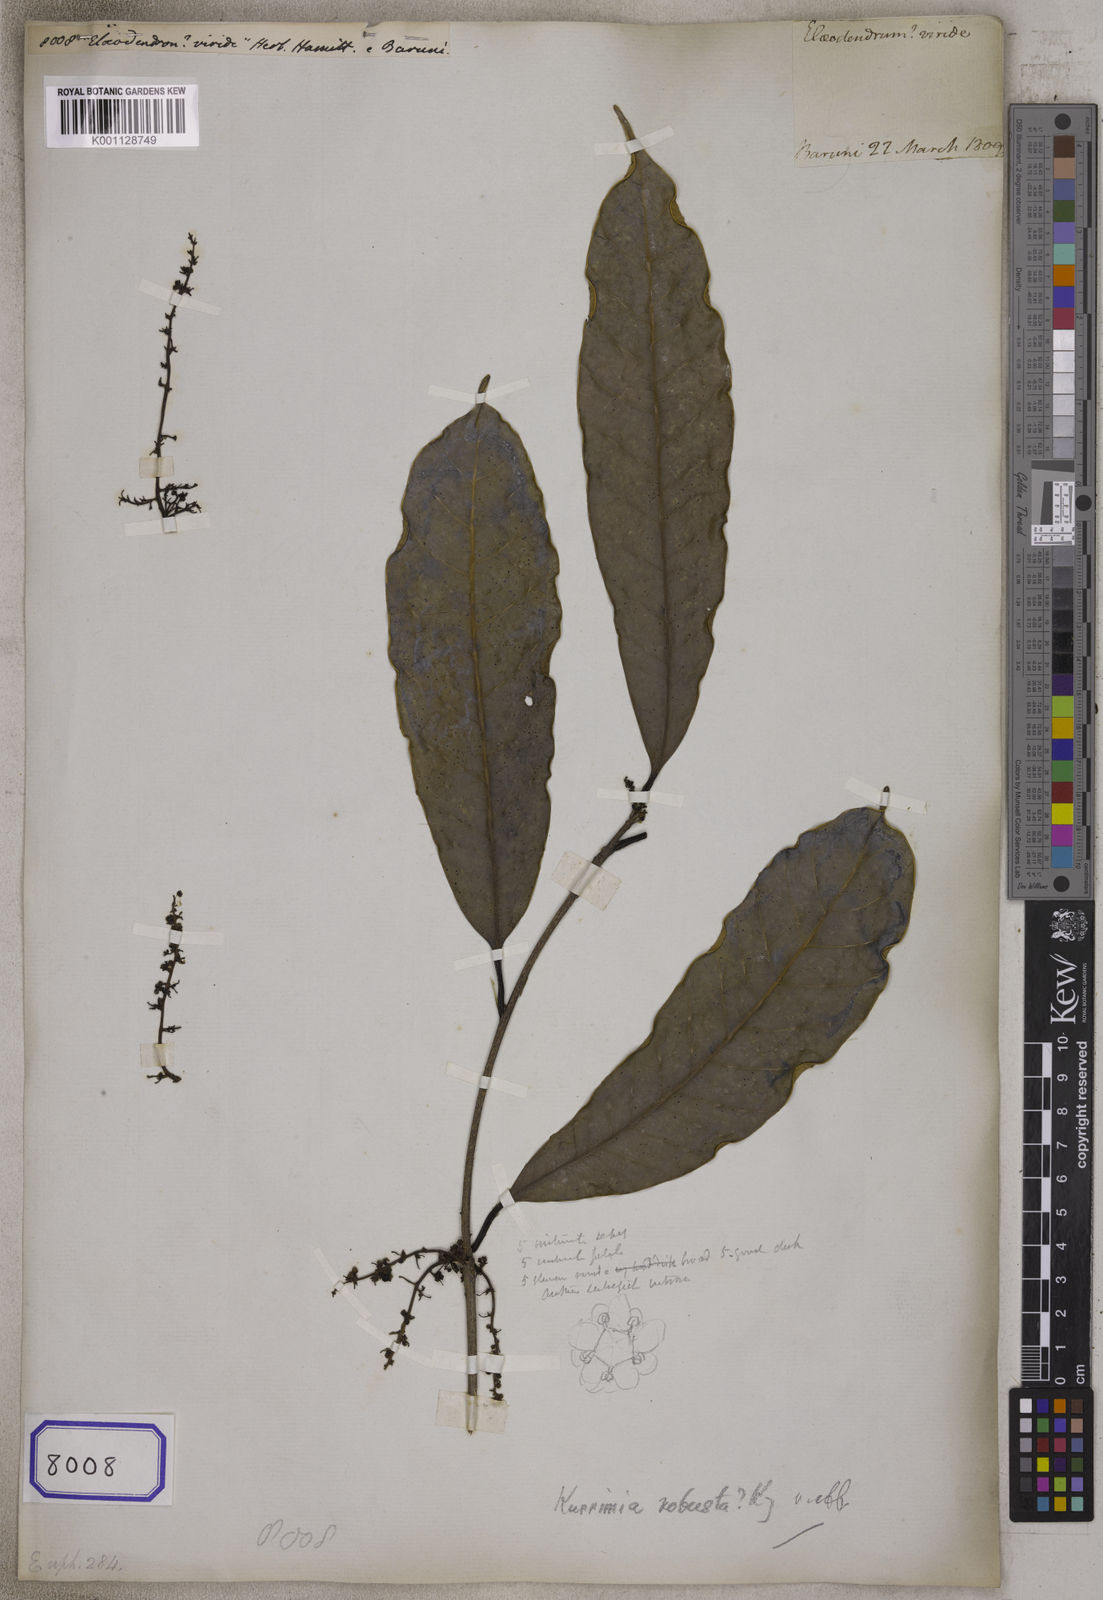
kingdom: Plantae
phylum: Tracheophyta
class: Magnoliopsida
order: Malpighiales
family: Euphorbiaceae
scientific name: Euphorbiaceae
